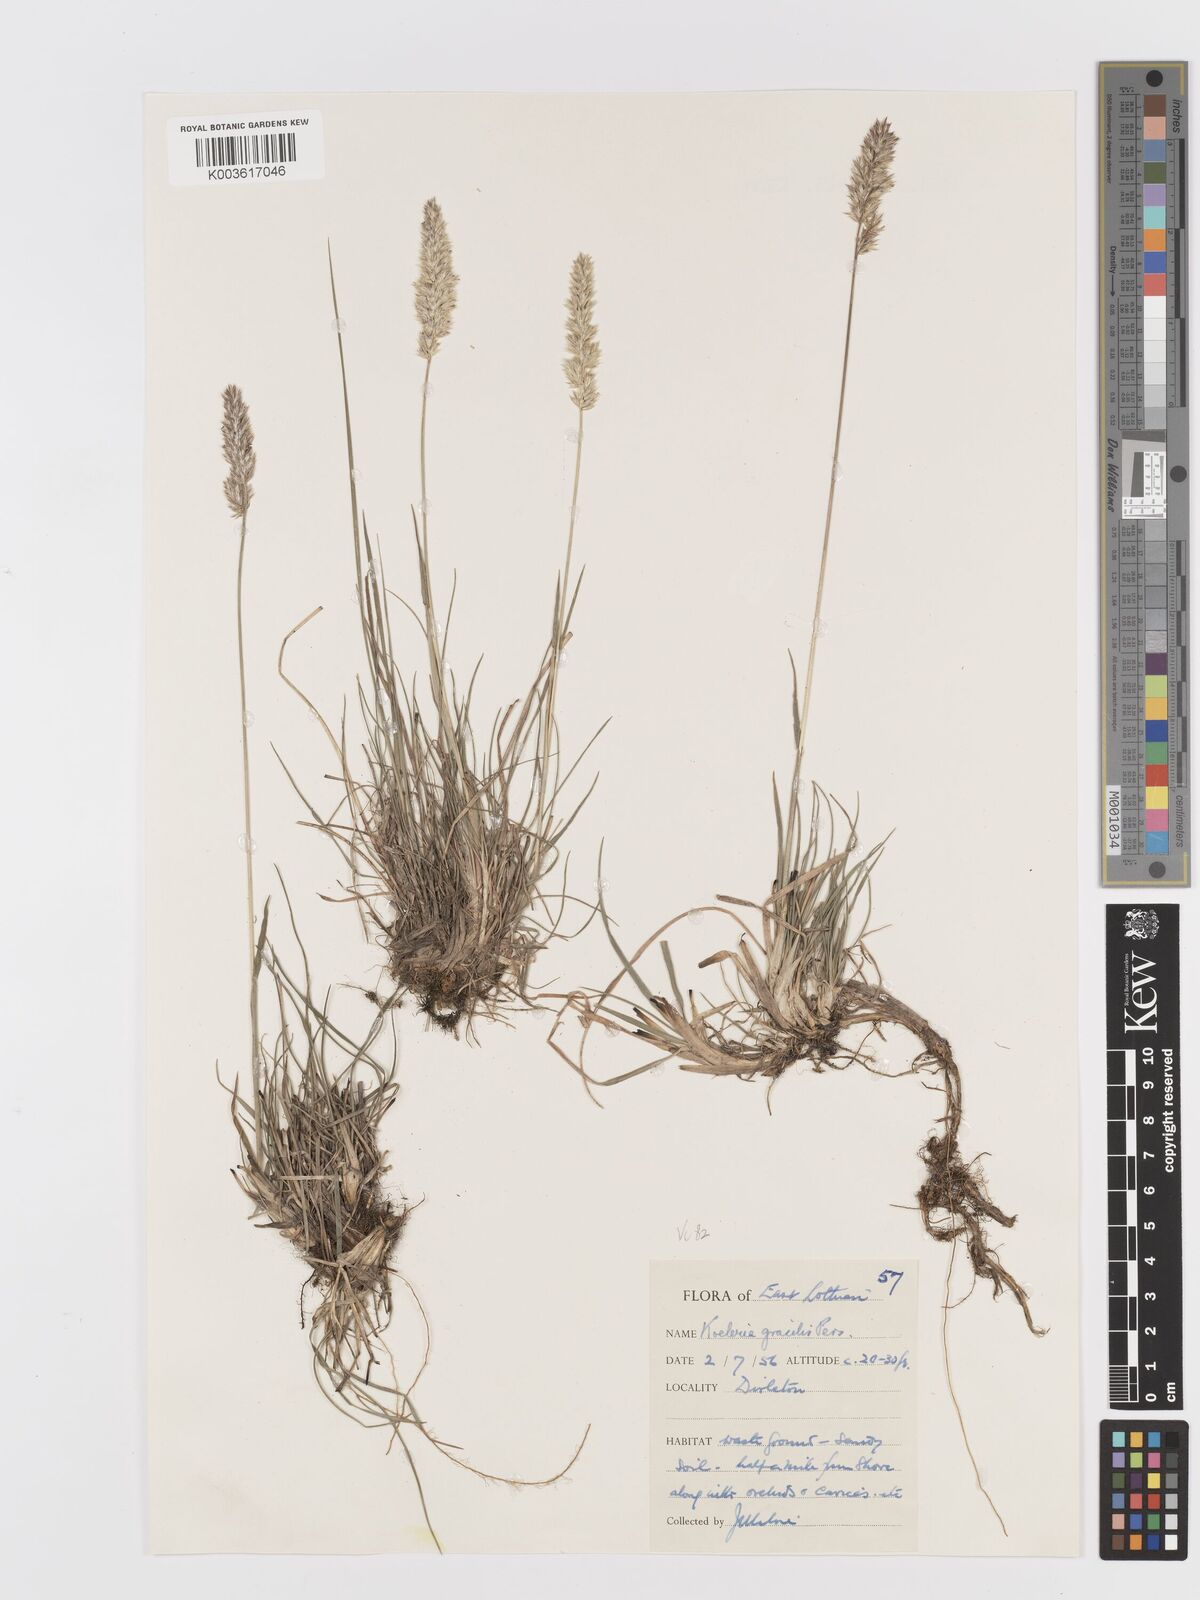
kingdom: Plantae
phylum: Tracheophyta
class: Liliopsida
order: Poales
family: Poaceae
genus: Koeleria
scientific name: Koeleria nitidula
